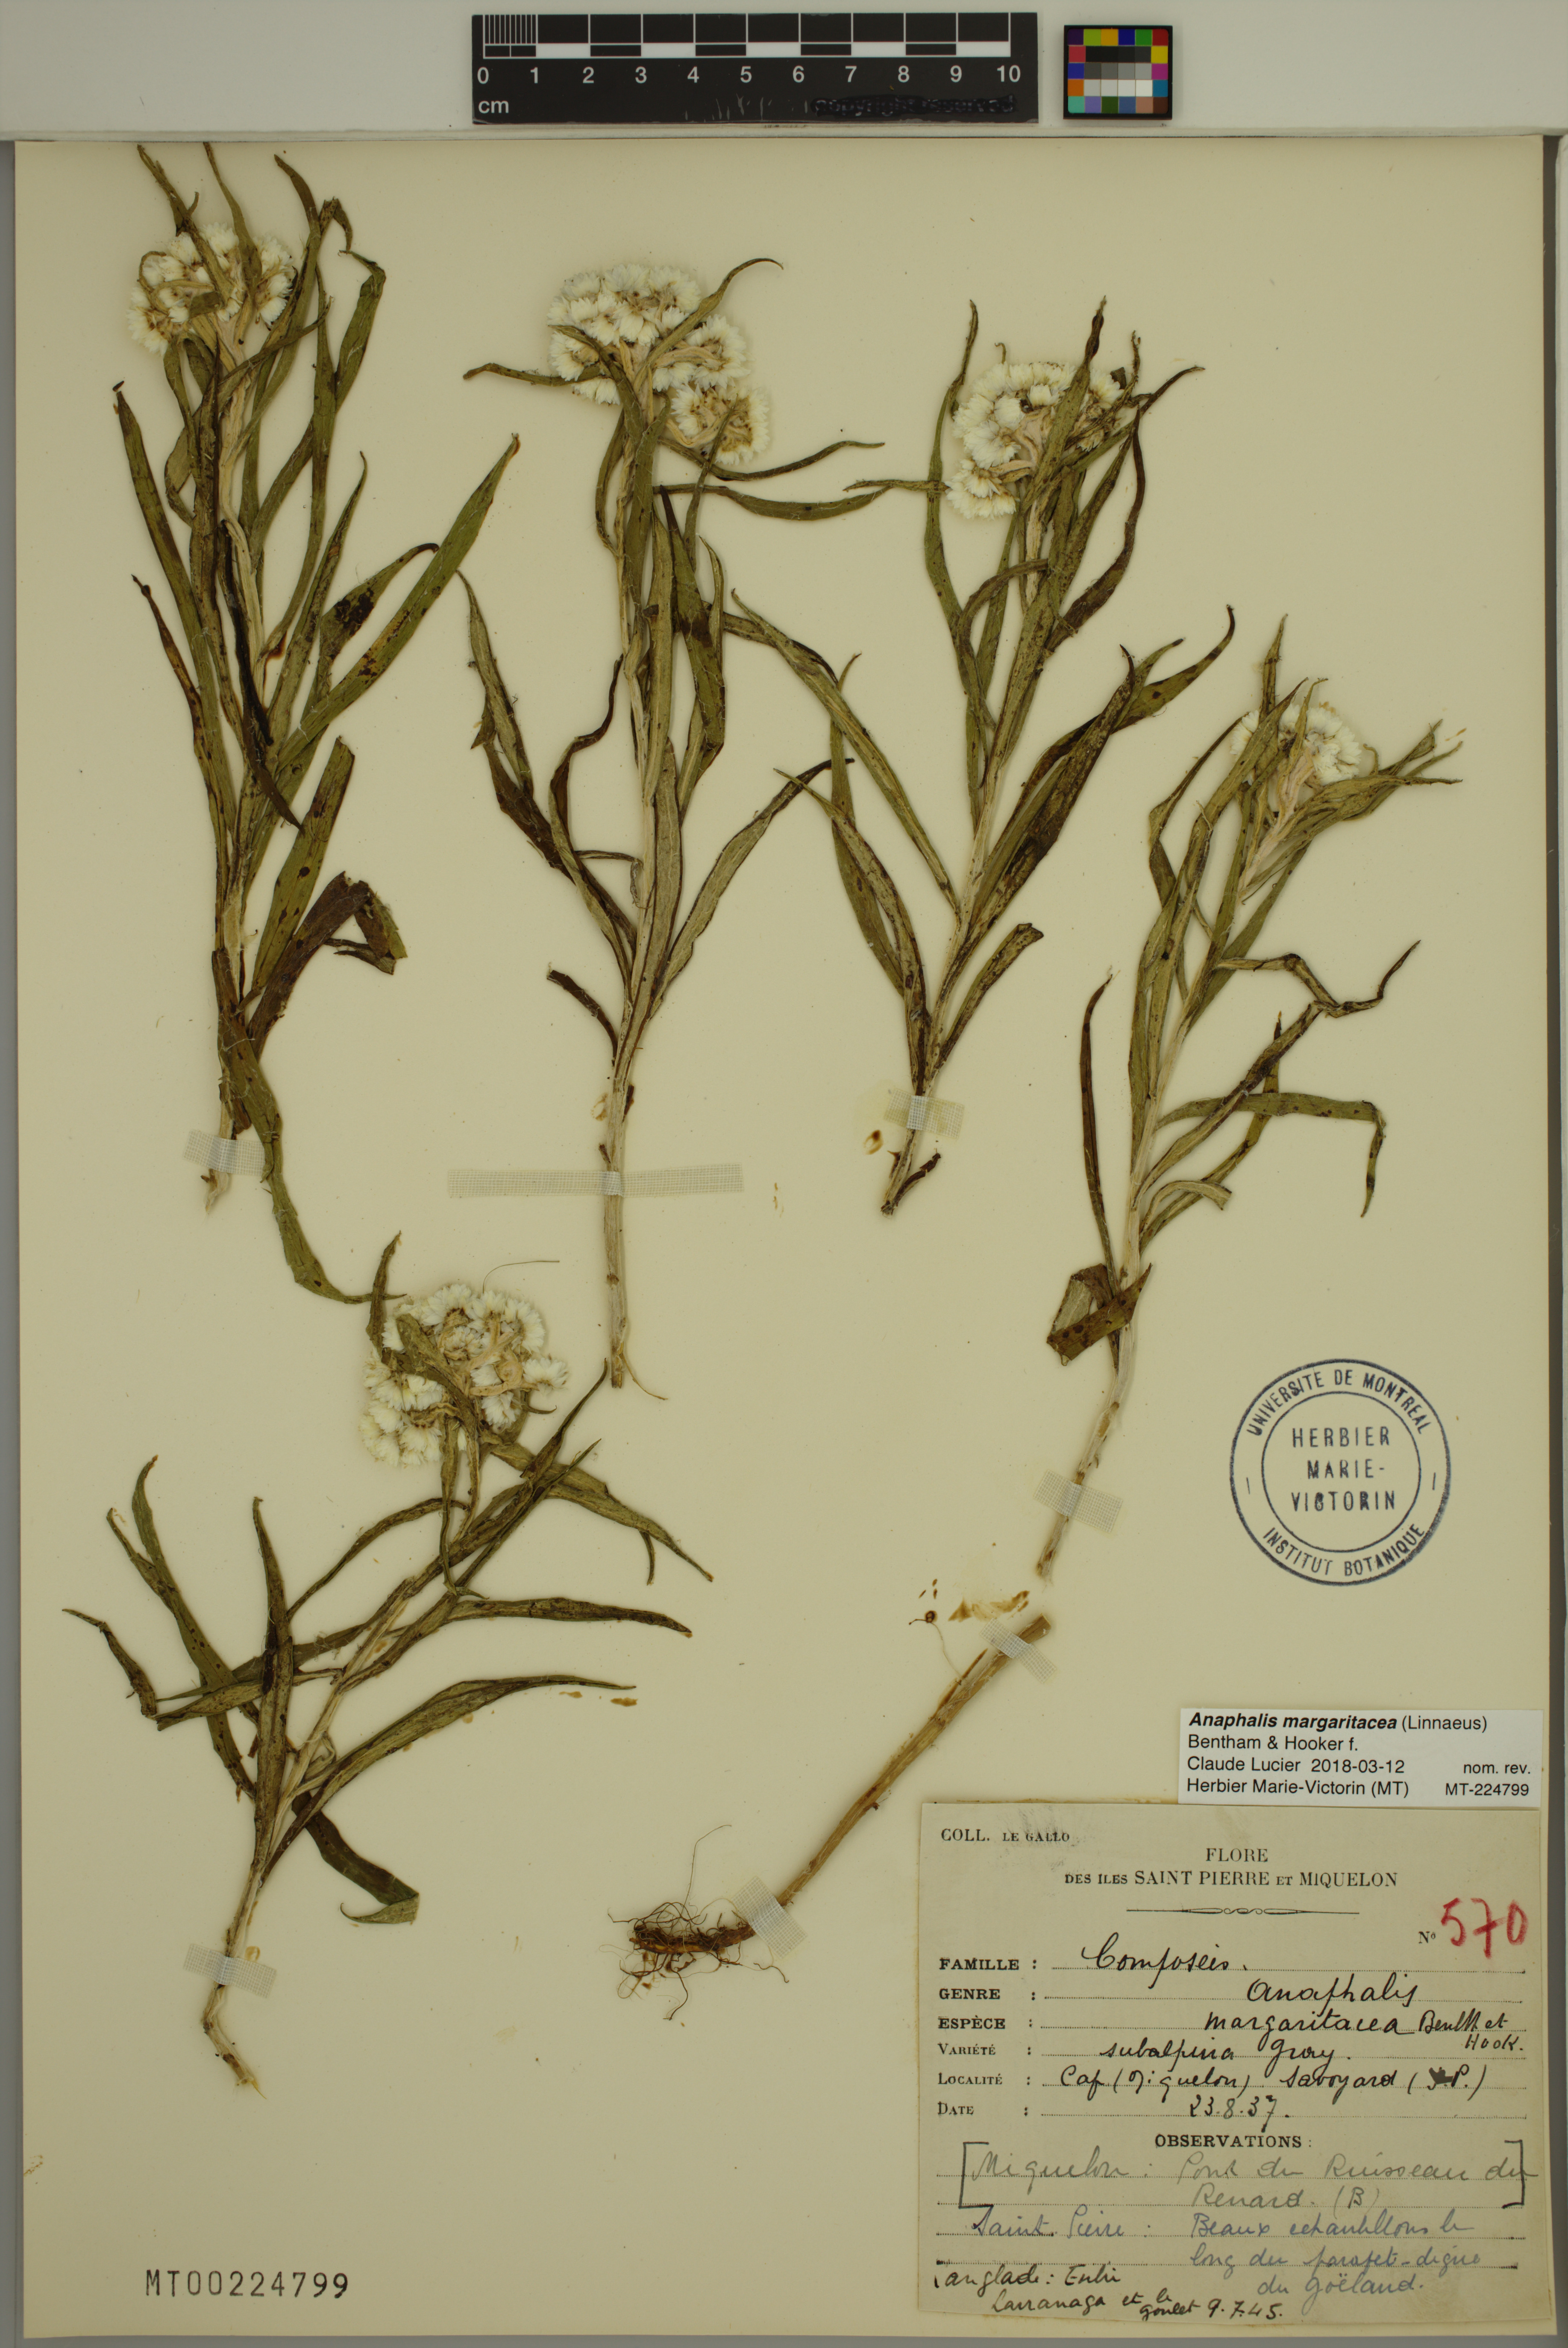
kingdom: Plantae
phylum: Tracheophyta
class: Magnoliopsida
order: Asterales
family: Asteraceae
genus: Anaphalis
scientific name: Anaphalis margaritacea
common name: Pearly everlasting
